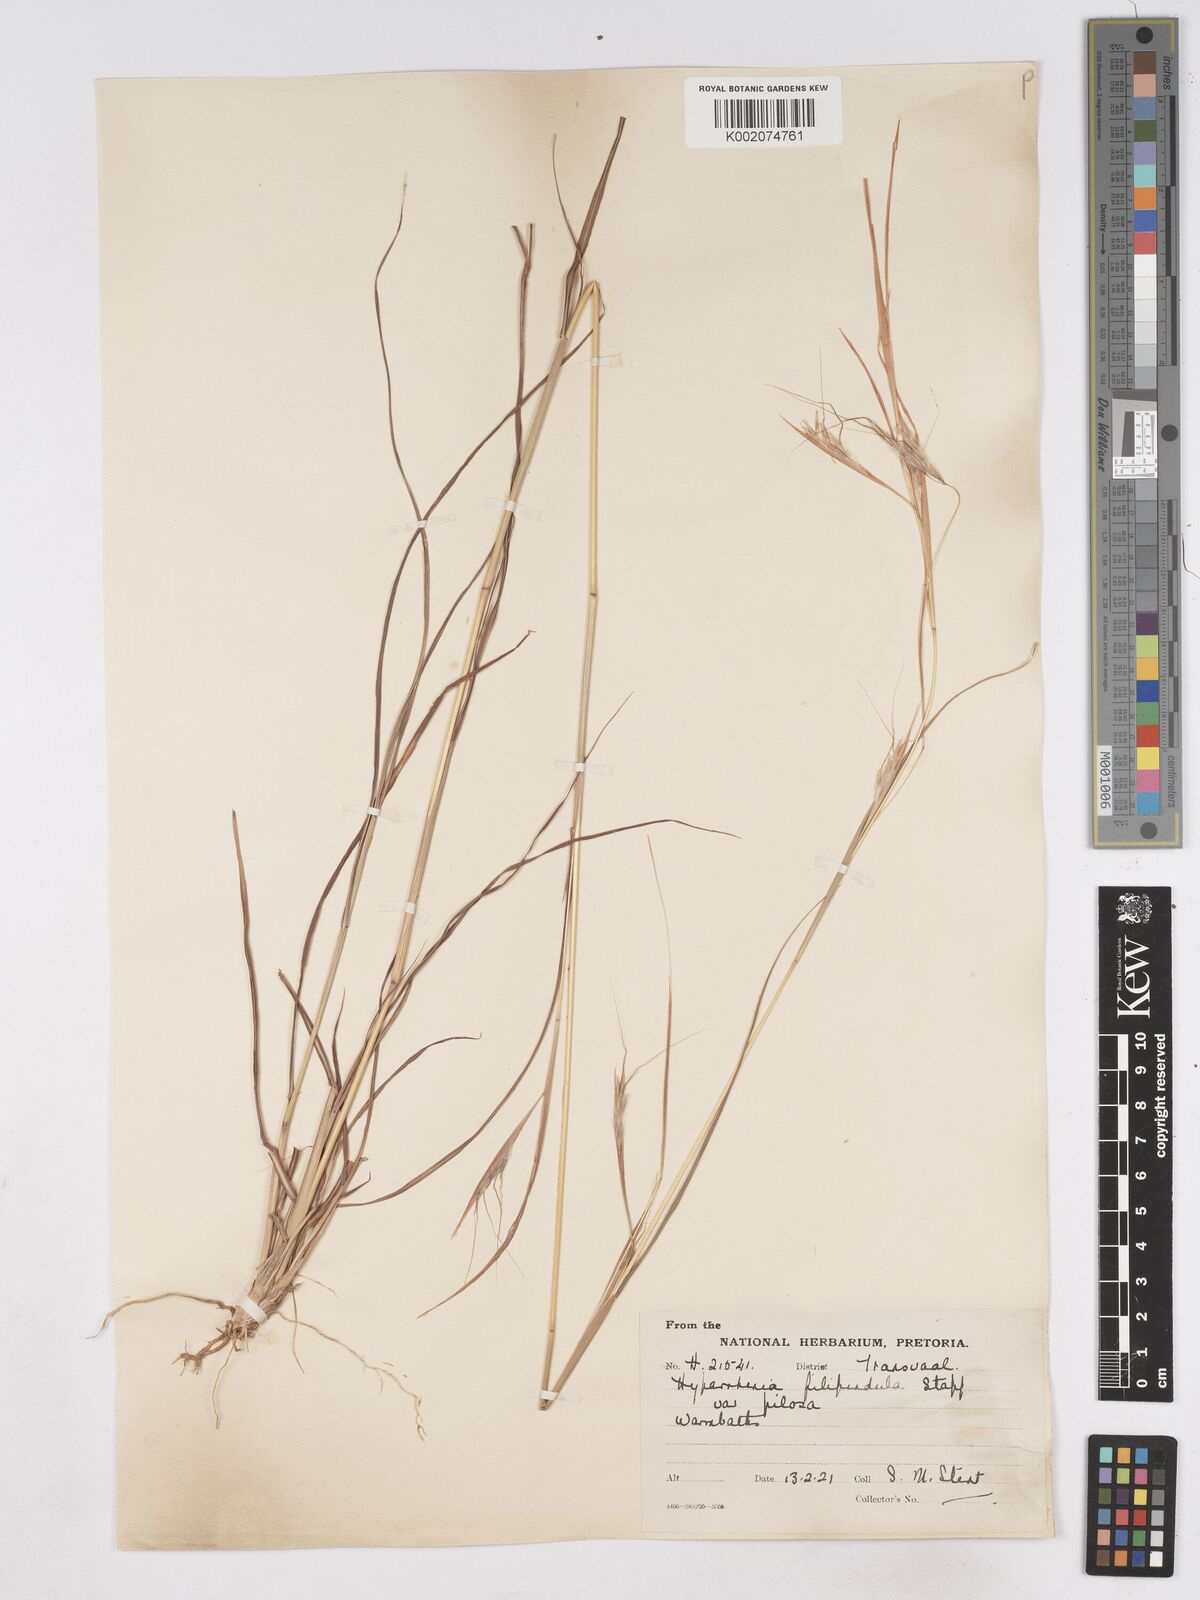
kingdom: Plantae
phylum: Tracheophyta
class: Liliopsida
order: Poales
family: Poaceae
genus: Hyparrhenia
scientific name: Hyparrhenia filipendula
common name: Tambookie grass
